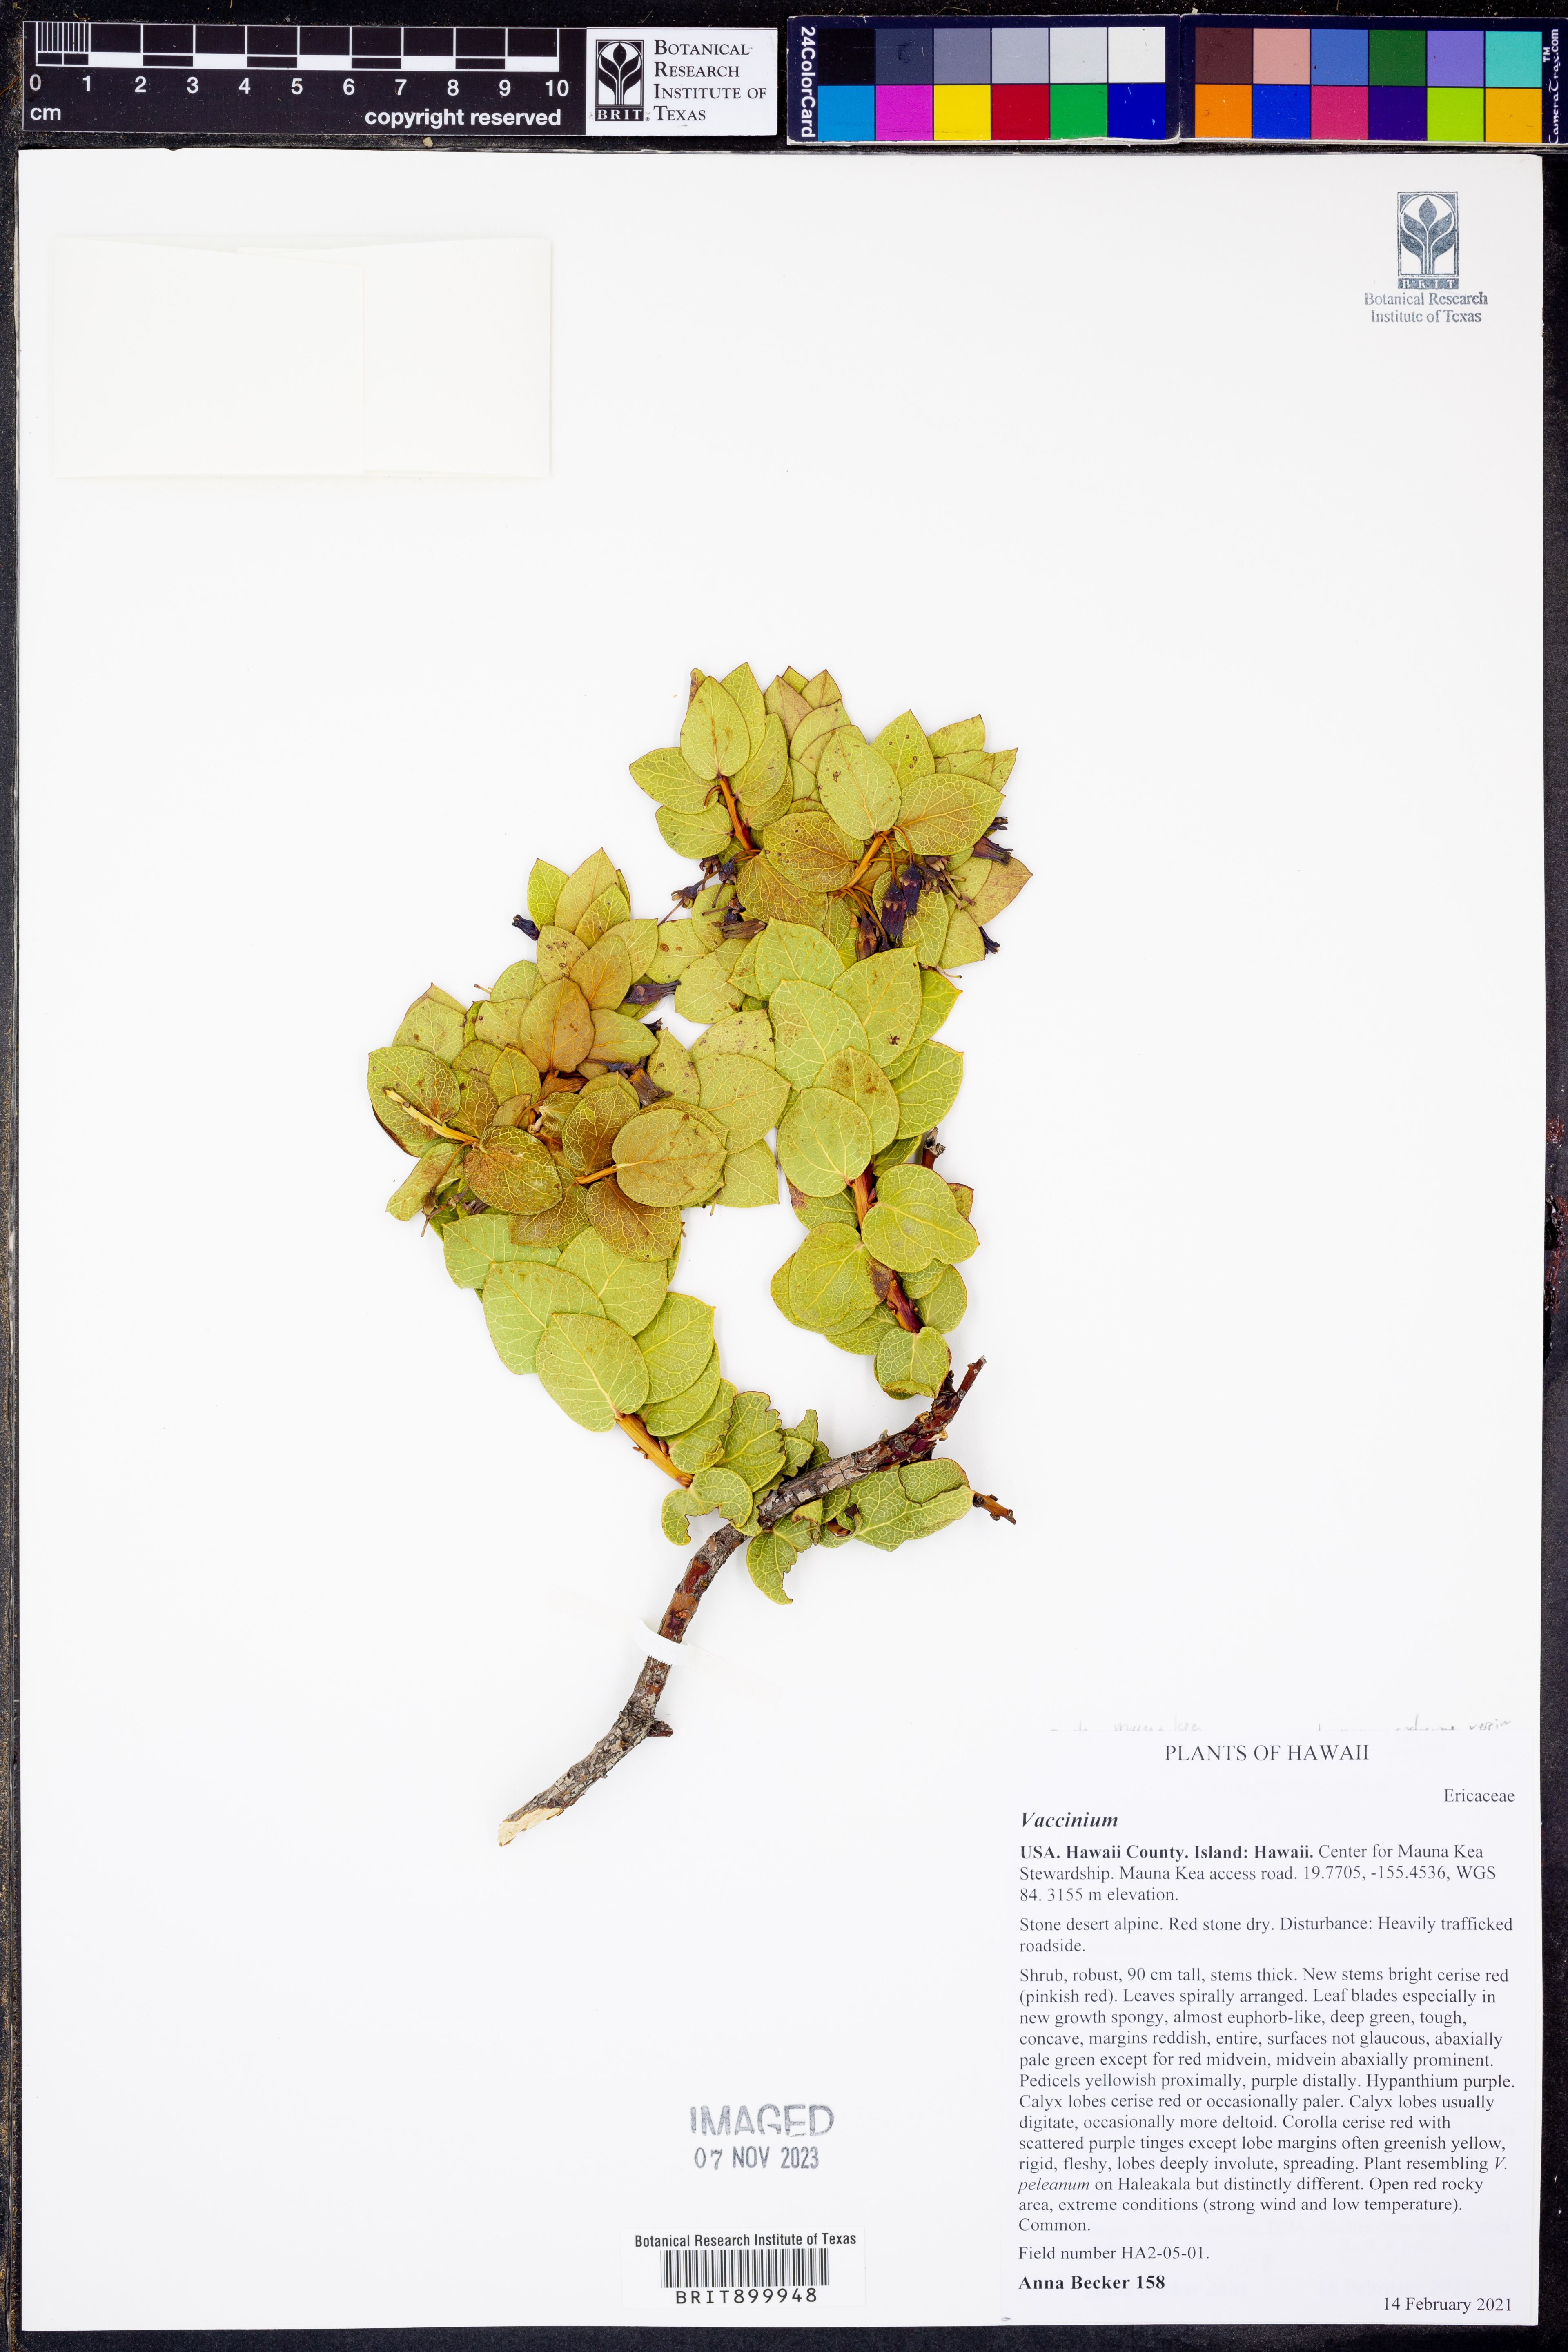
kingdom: Plantae
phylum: Tracheophyta
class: Magnoliopsida
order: Ericales
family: Ericaceae
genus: Vaccinium
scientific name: Vaccinium
